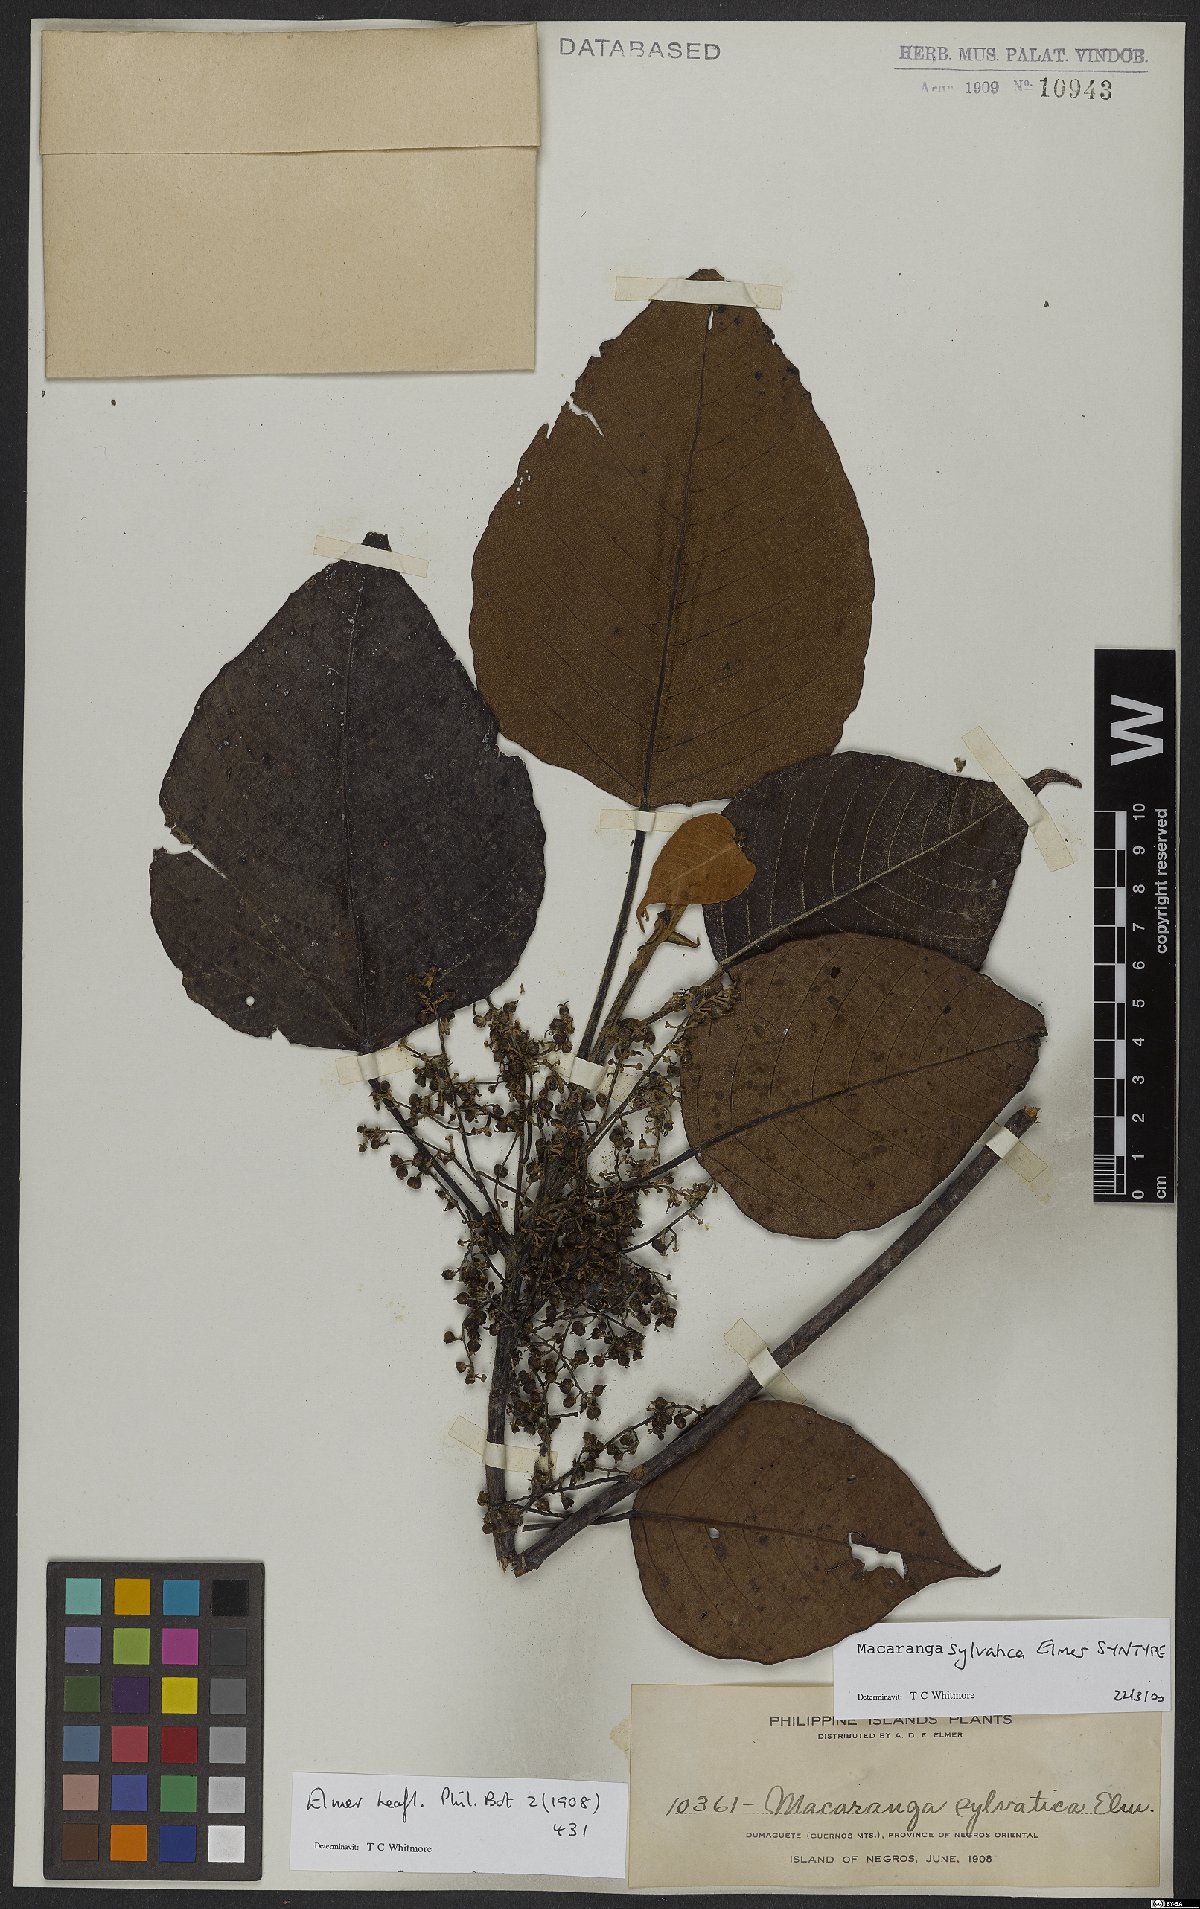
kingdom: Plantae
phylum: Tracheophyta
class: Magnoliopsida
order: Malpighiales
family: Euphorbiaceae
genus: Macaranga
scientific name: Macaranga sylvatica
